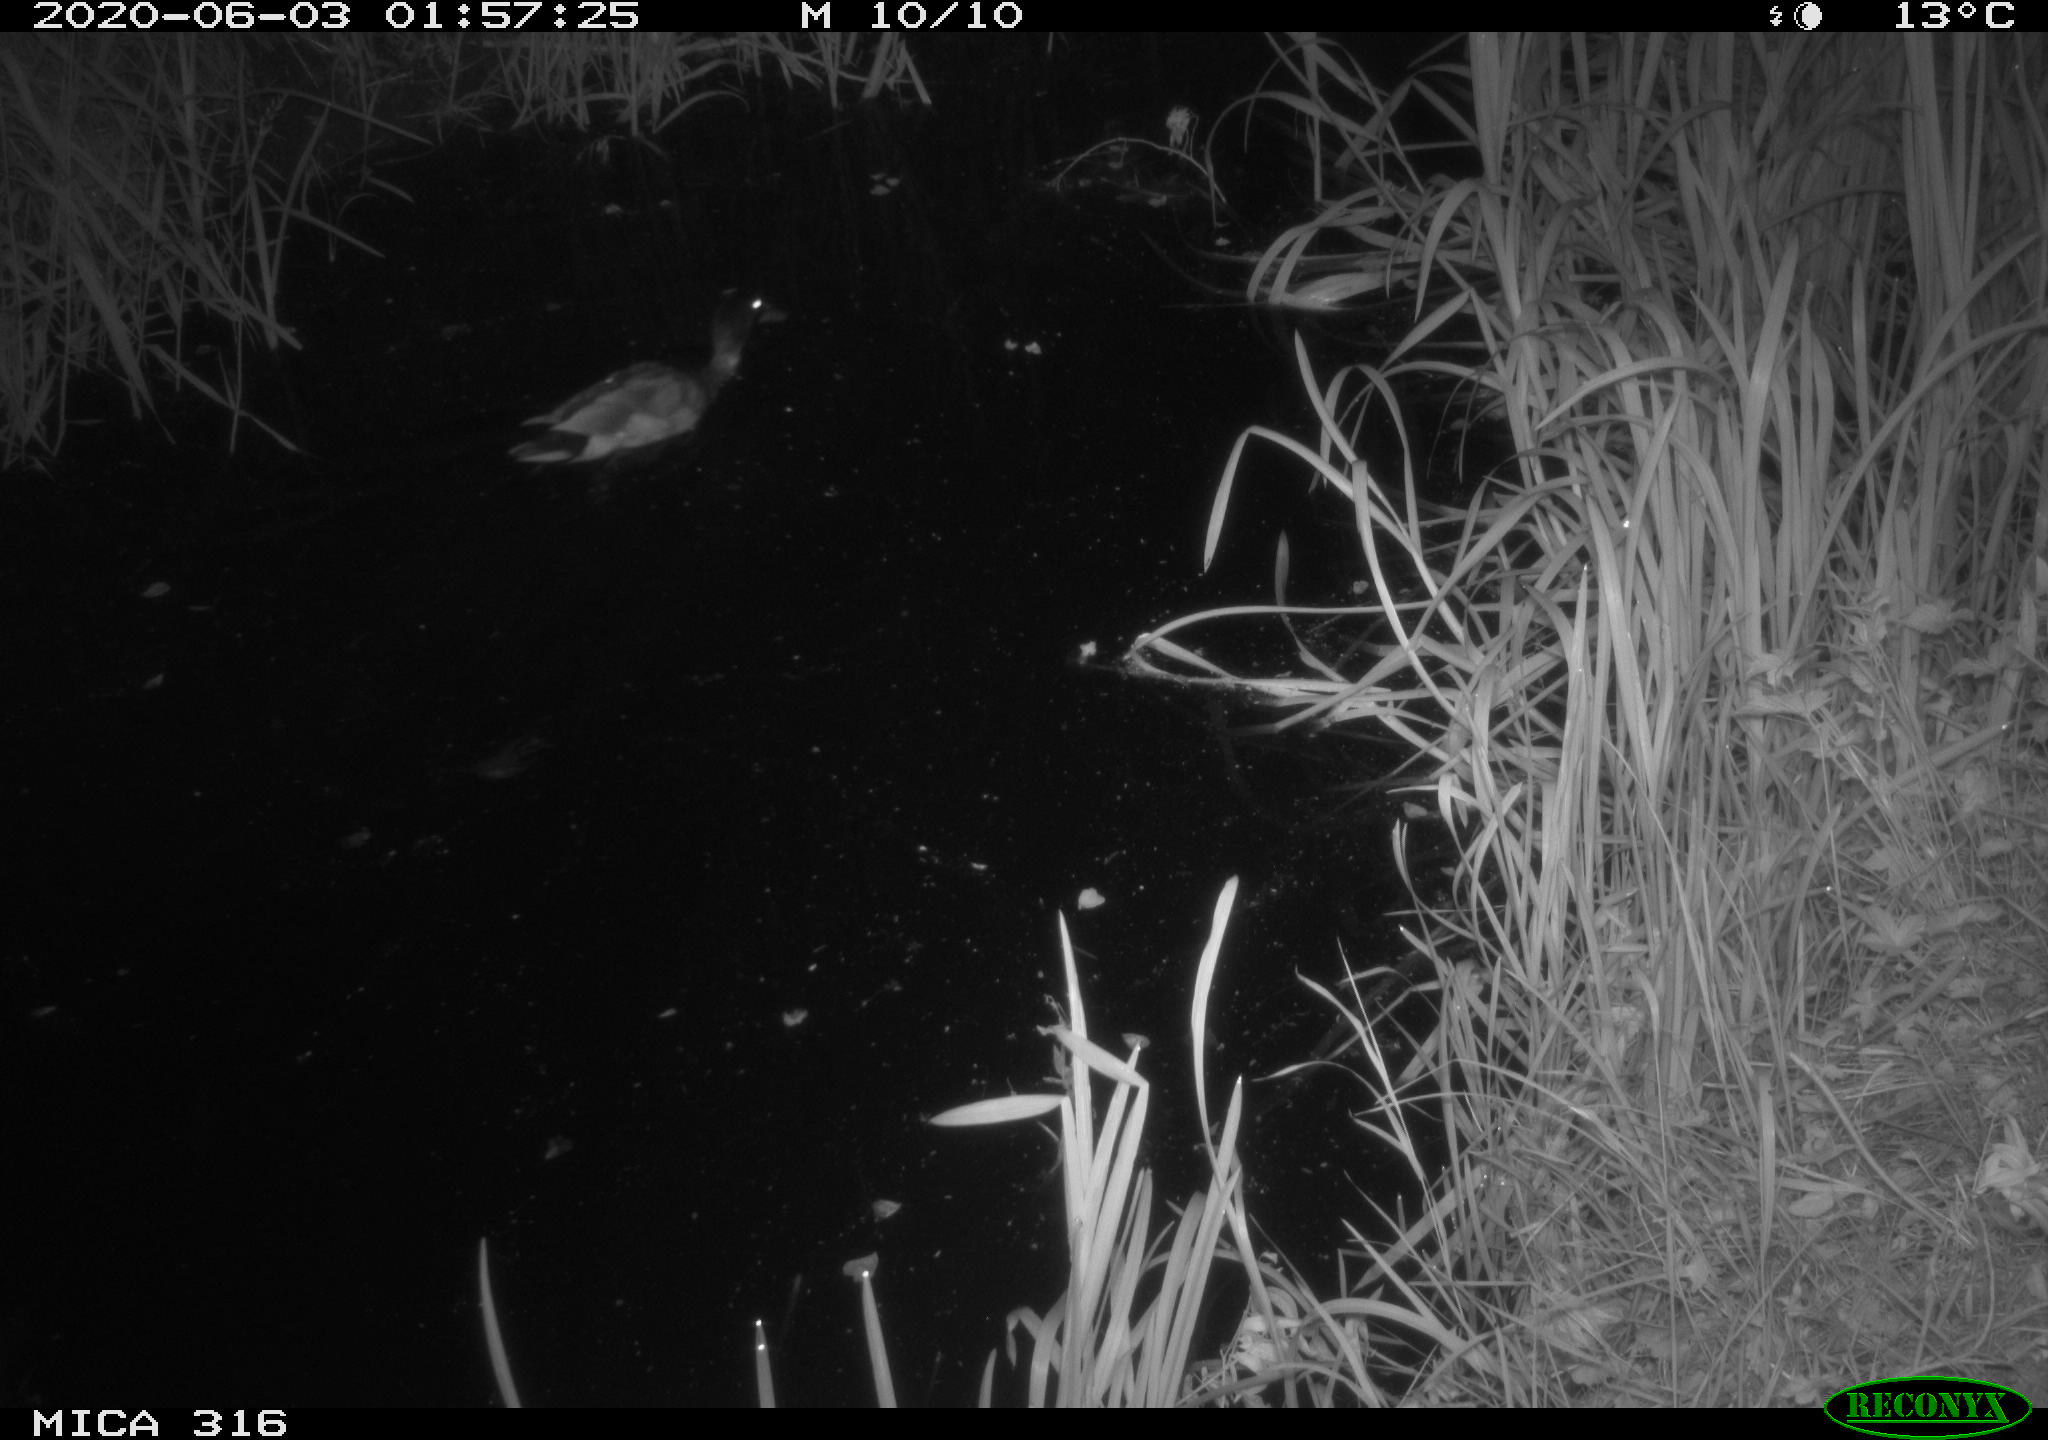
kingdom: Animalia
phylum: Chordata
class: Aves
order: Anseriformes
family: Anatidae
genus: Anas
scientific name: Anas platyrhynchos
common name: Mallard
